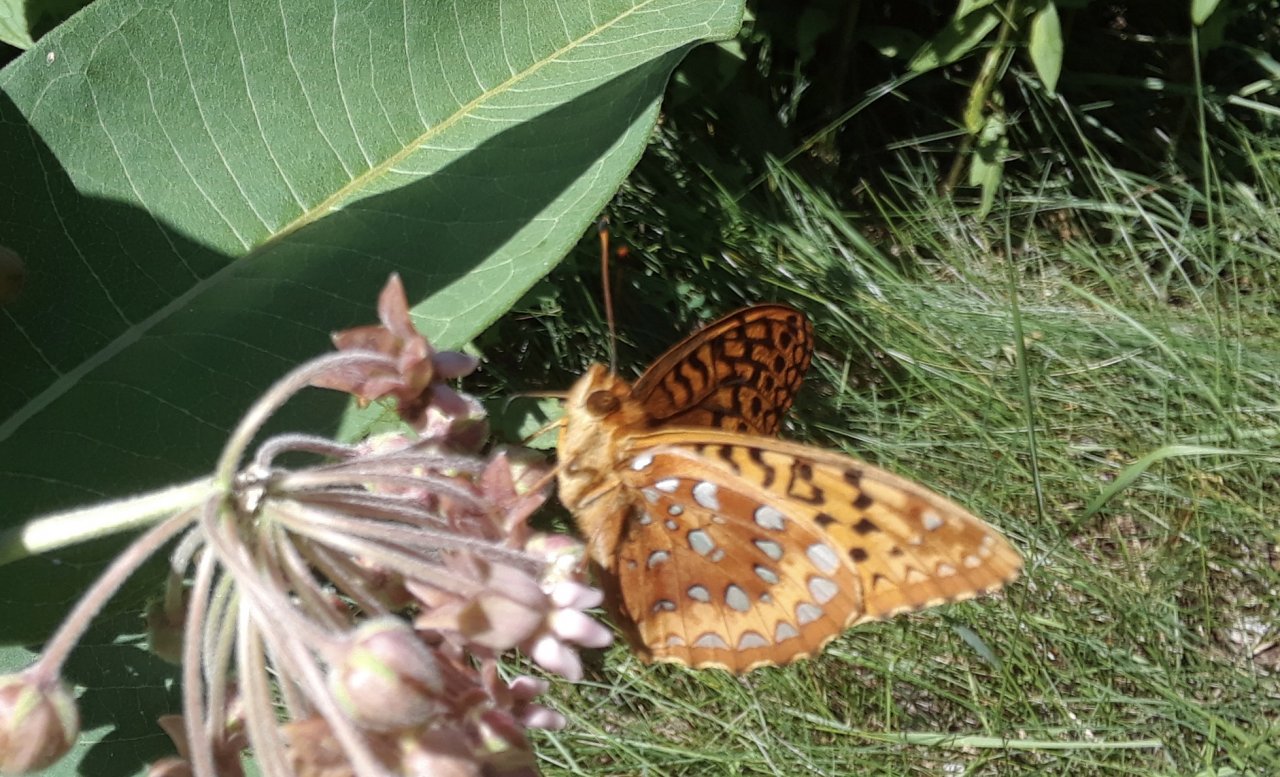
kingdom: Animalia
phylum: Arthropoda
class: Insecta
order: Lepidoptera
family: Nymphalidae
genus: Speyeria
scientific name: Speyeria cybele
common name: Great Spangled Fritillary
